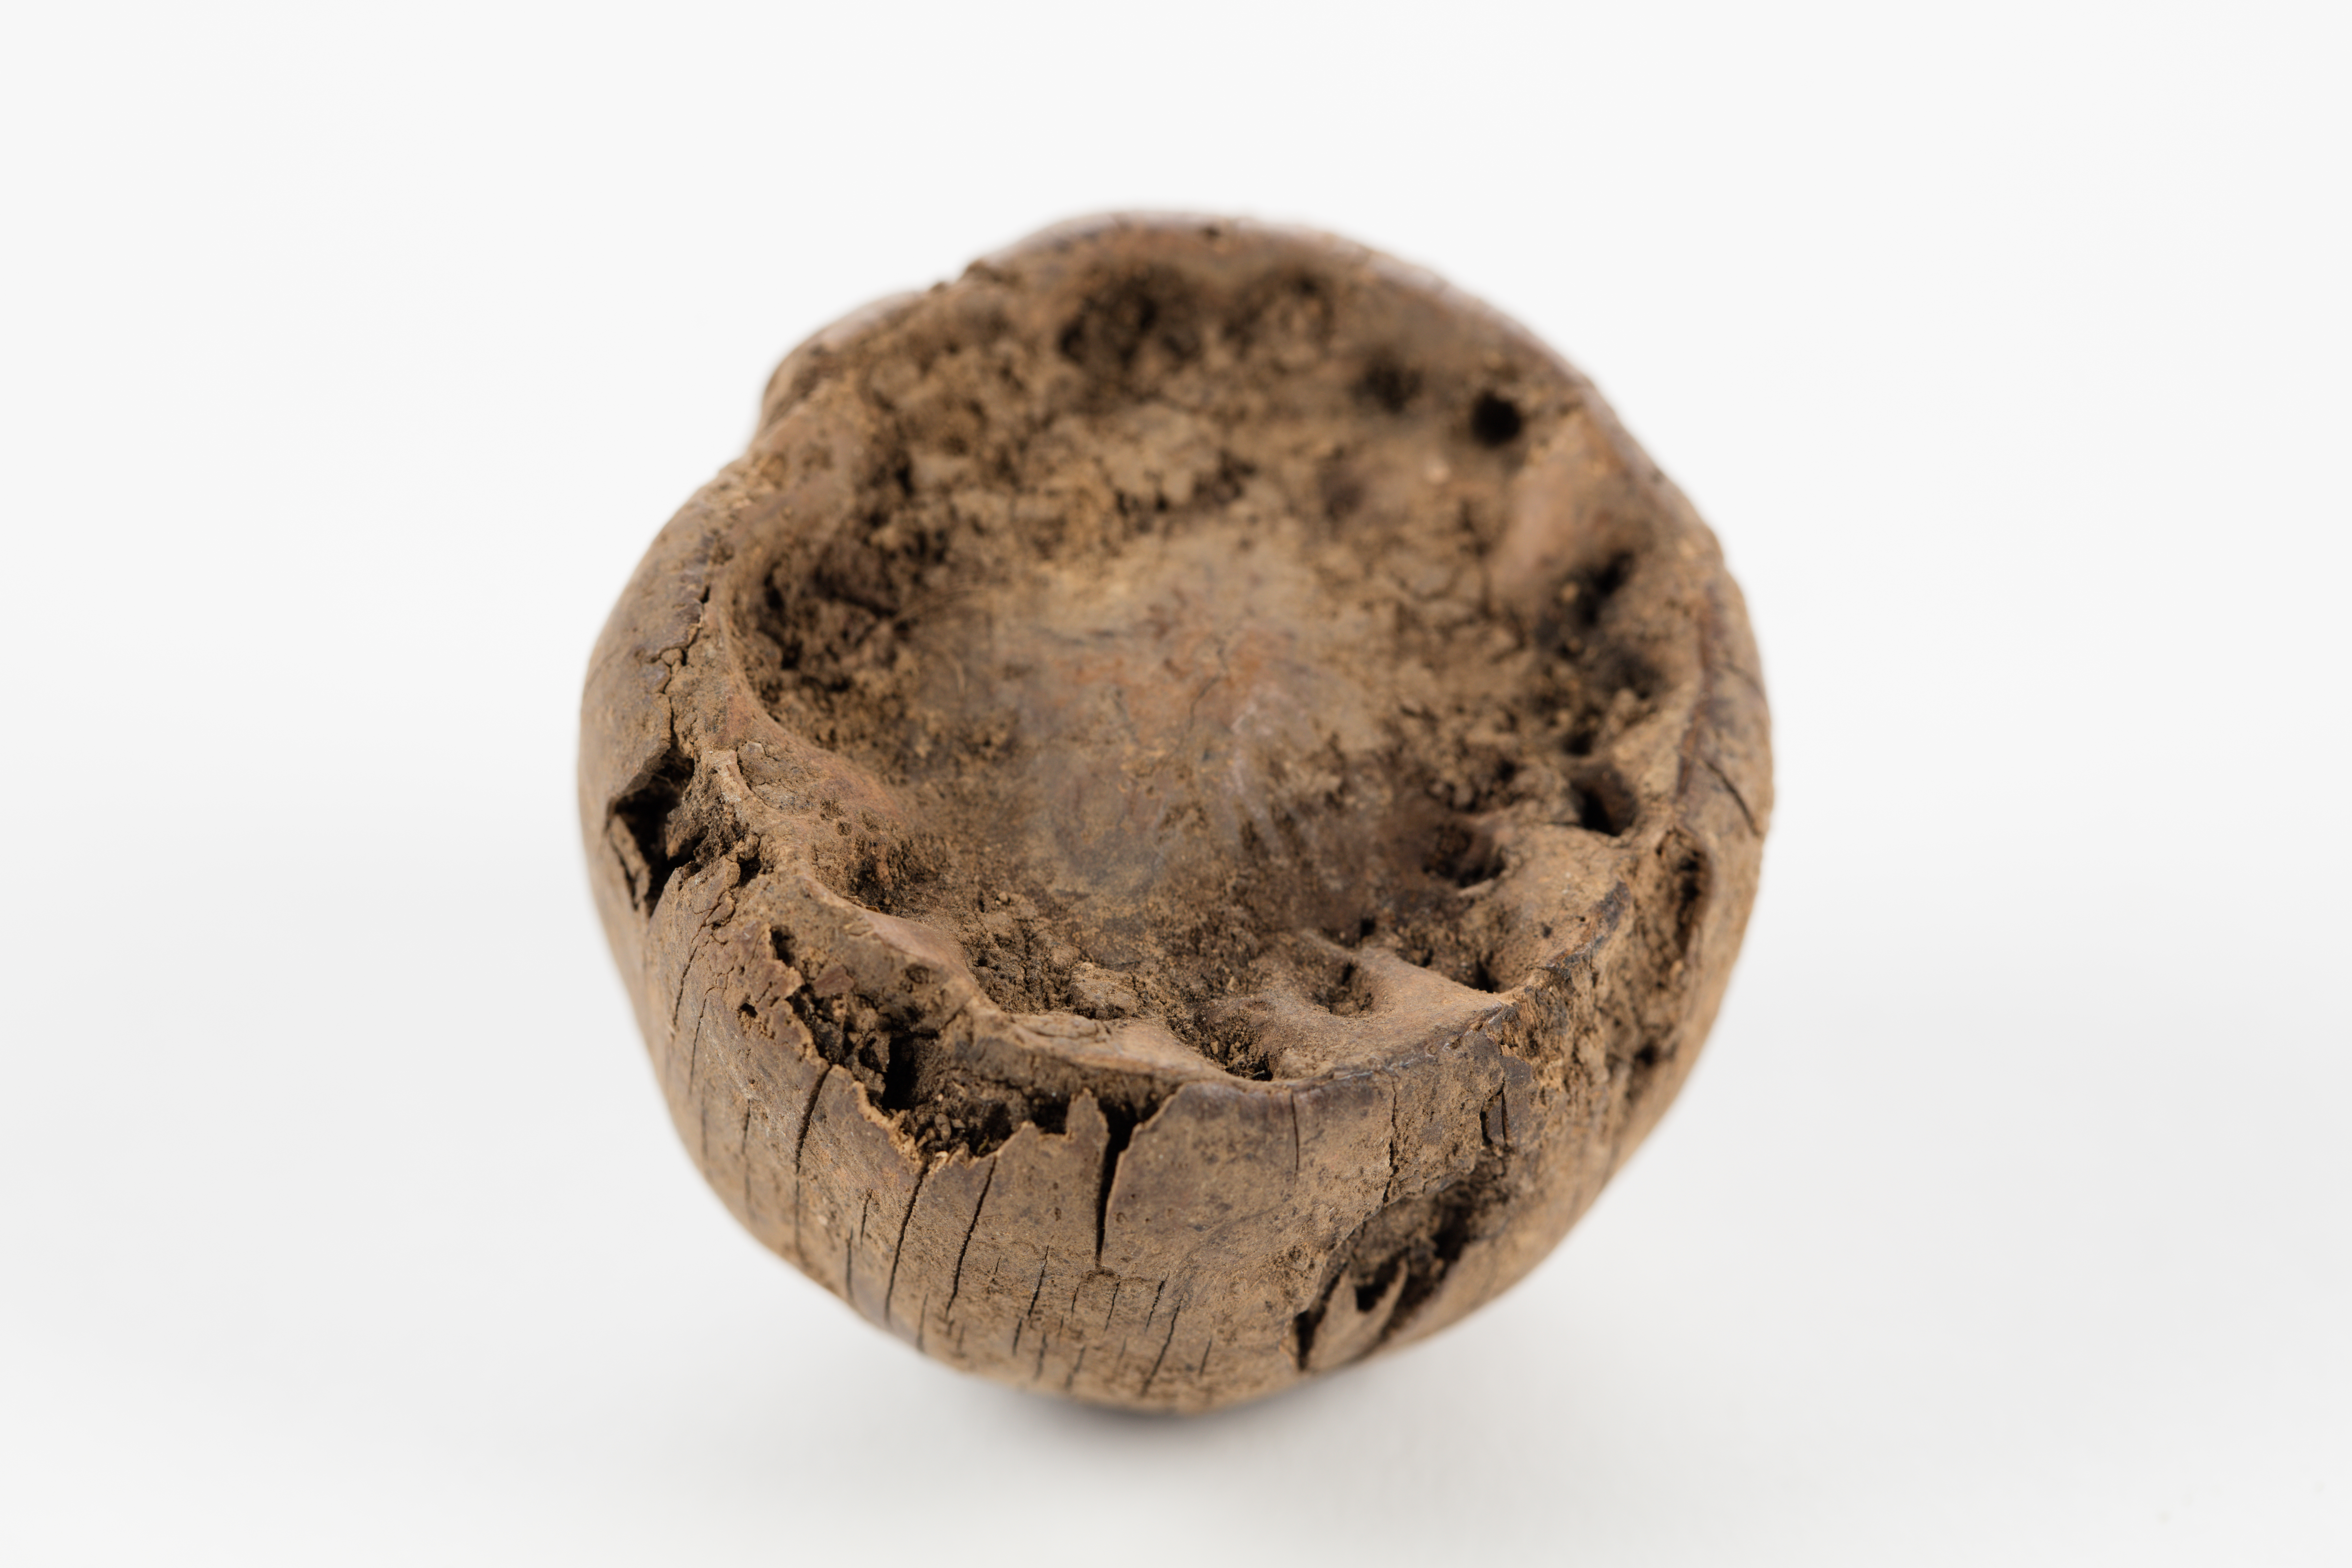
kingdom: Plantae
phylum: Tracheophyta
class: Magnoliopsida
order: Fagales
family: Fagaceae
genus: Lithocarpus
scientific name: Lithocarpus
